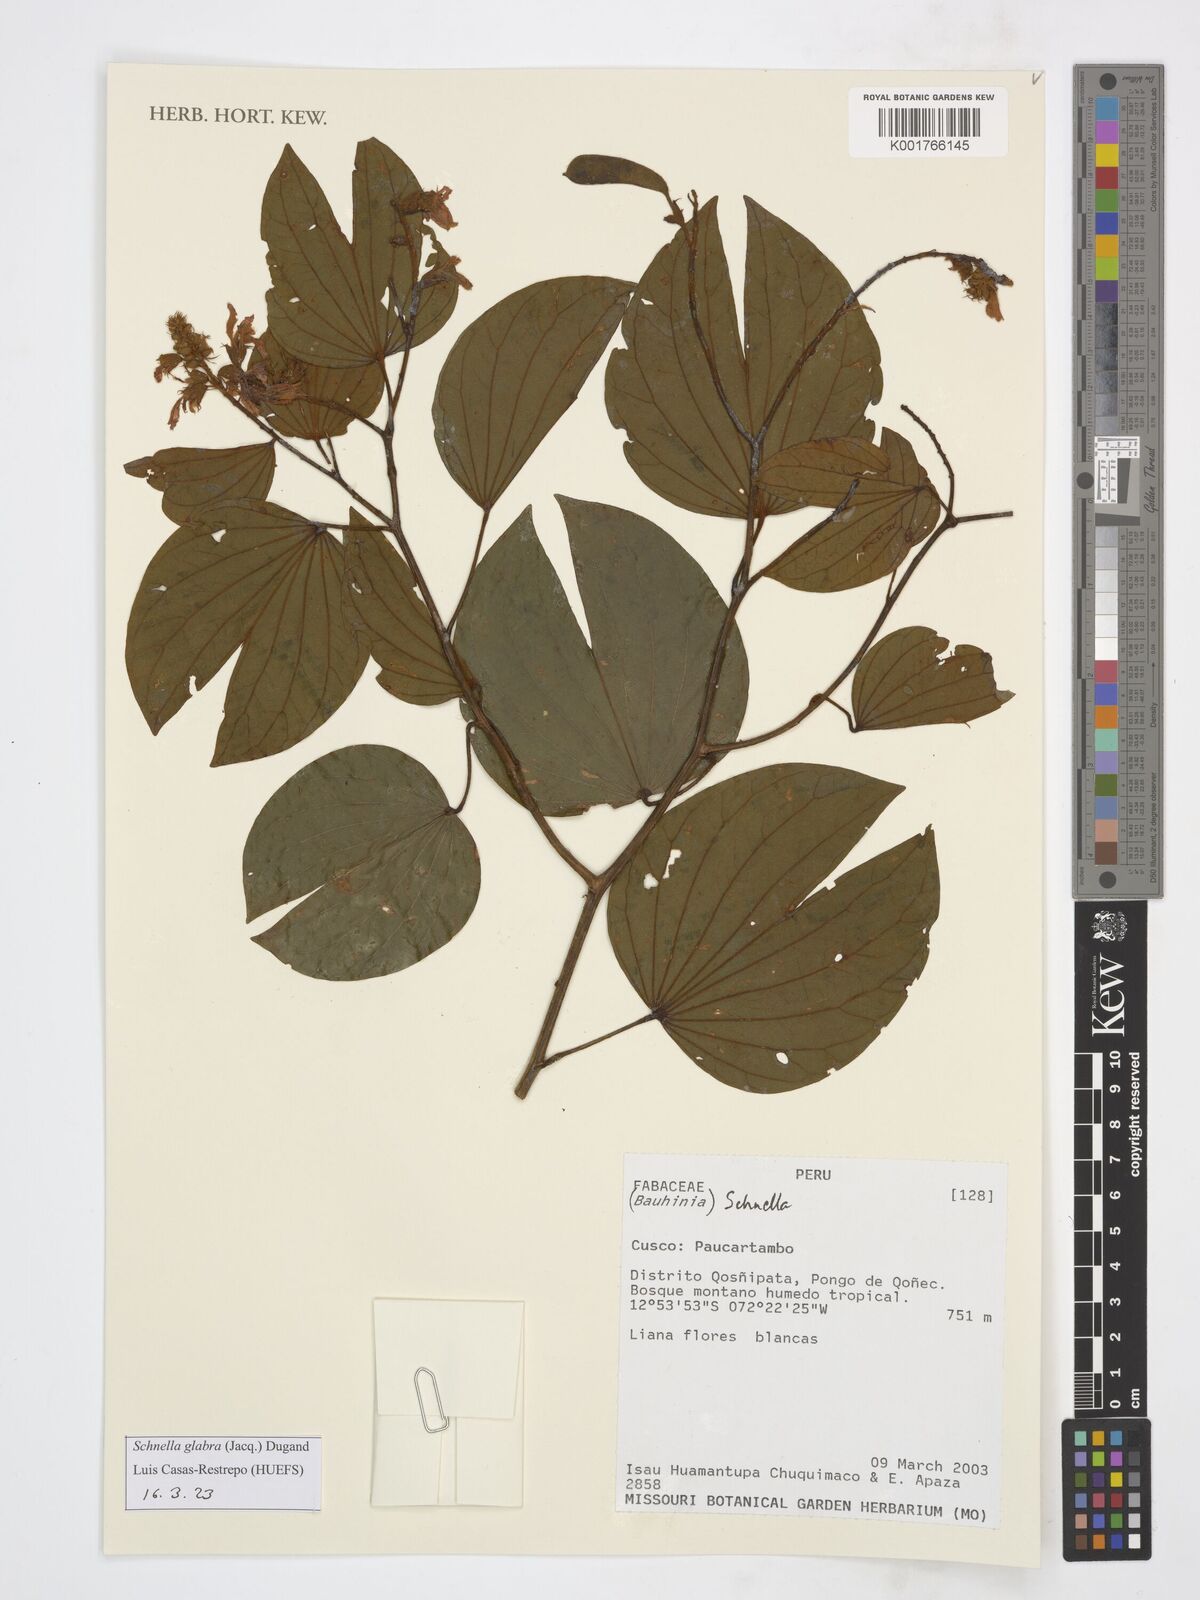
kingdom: Plantae
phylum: Tracheophyta
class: Magnoliopsida
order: Fabales
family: Fabaceae
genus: Schnella
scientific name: Schnella glabra
